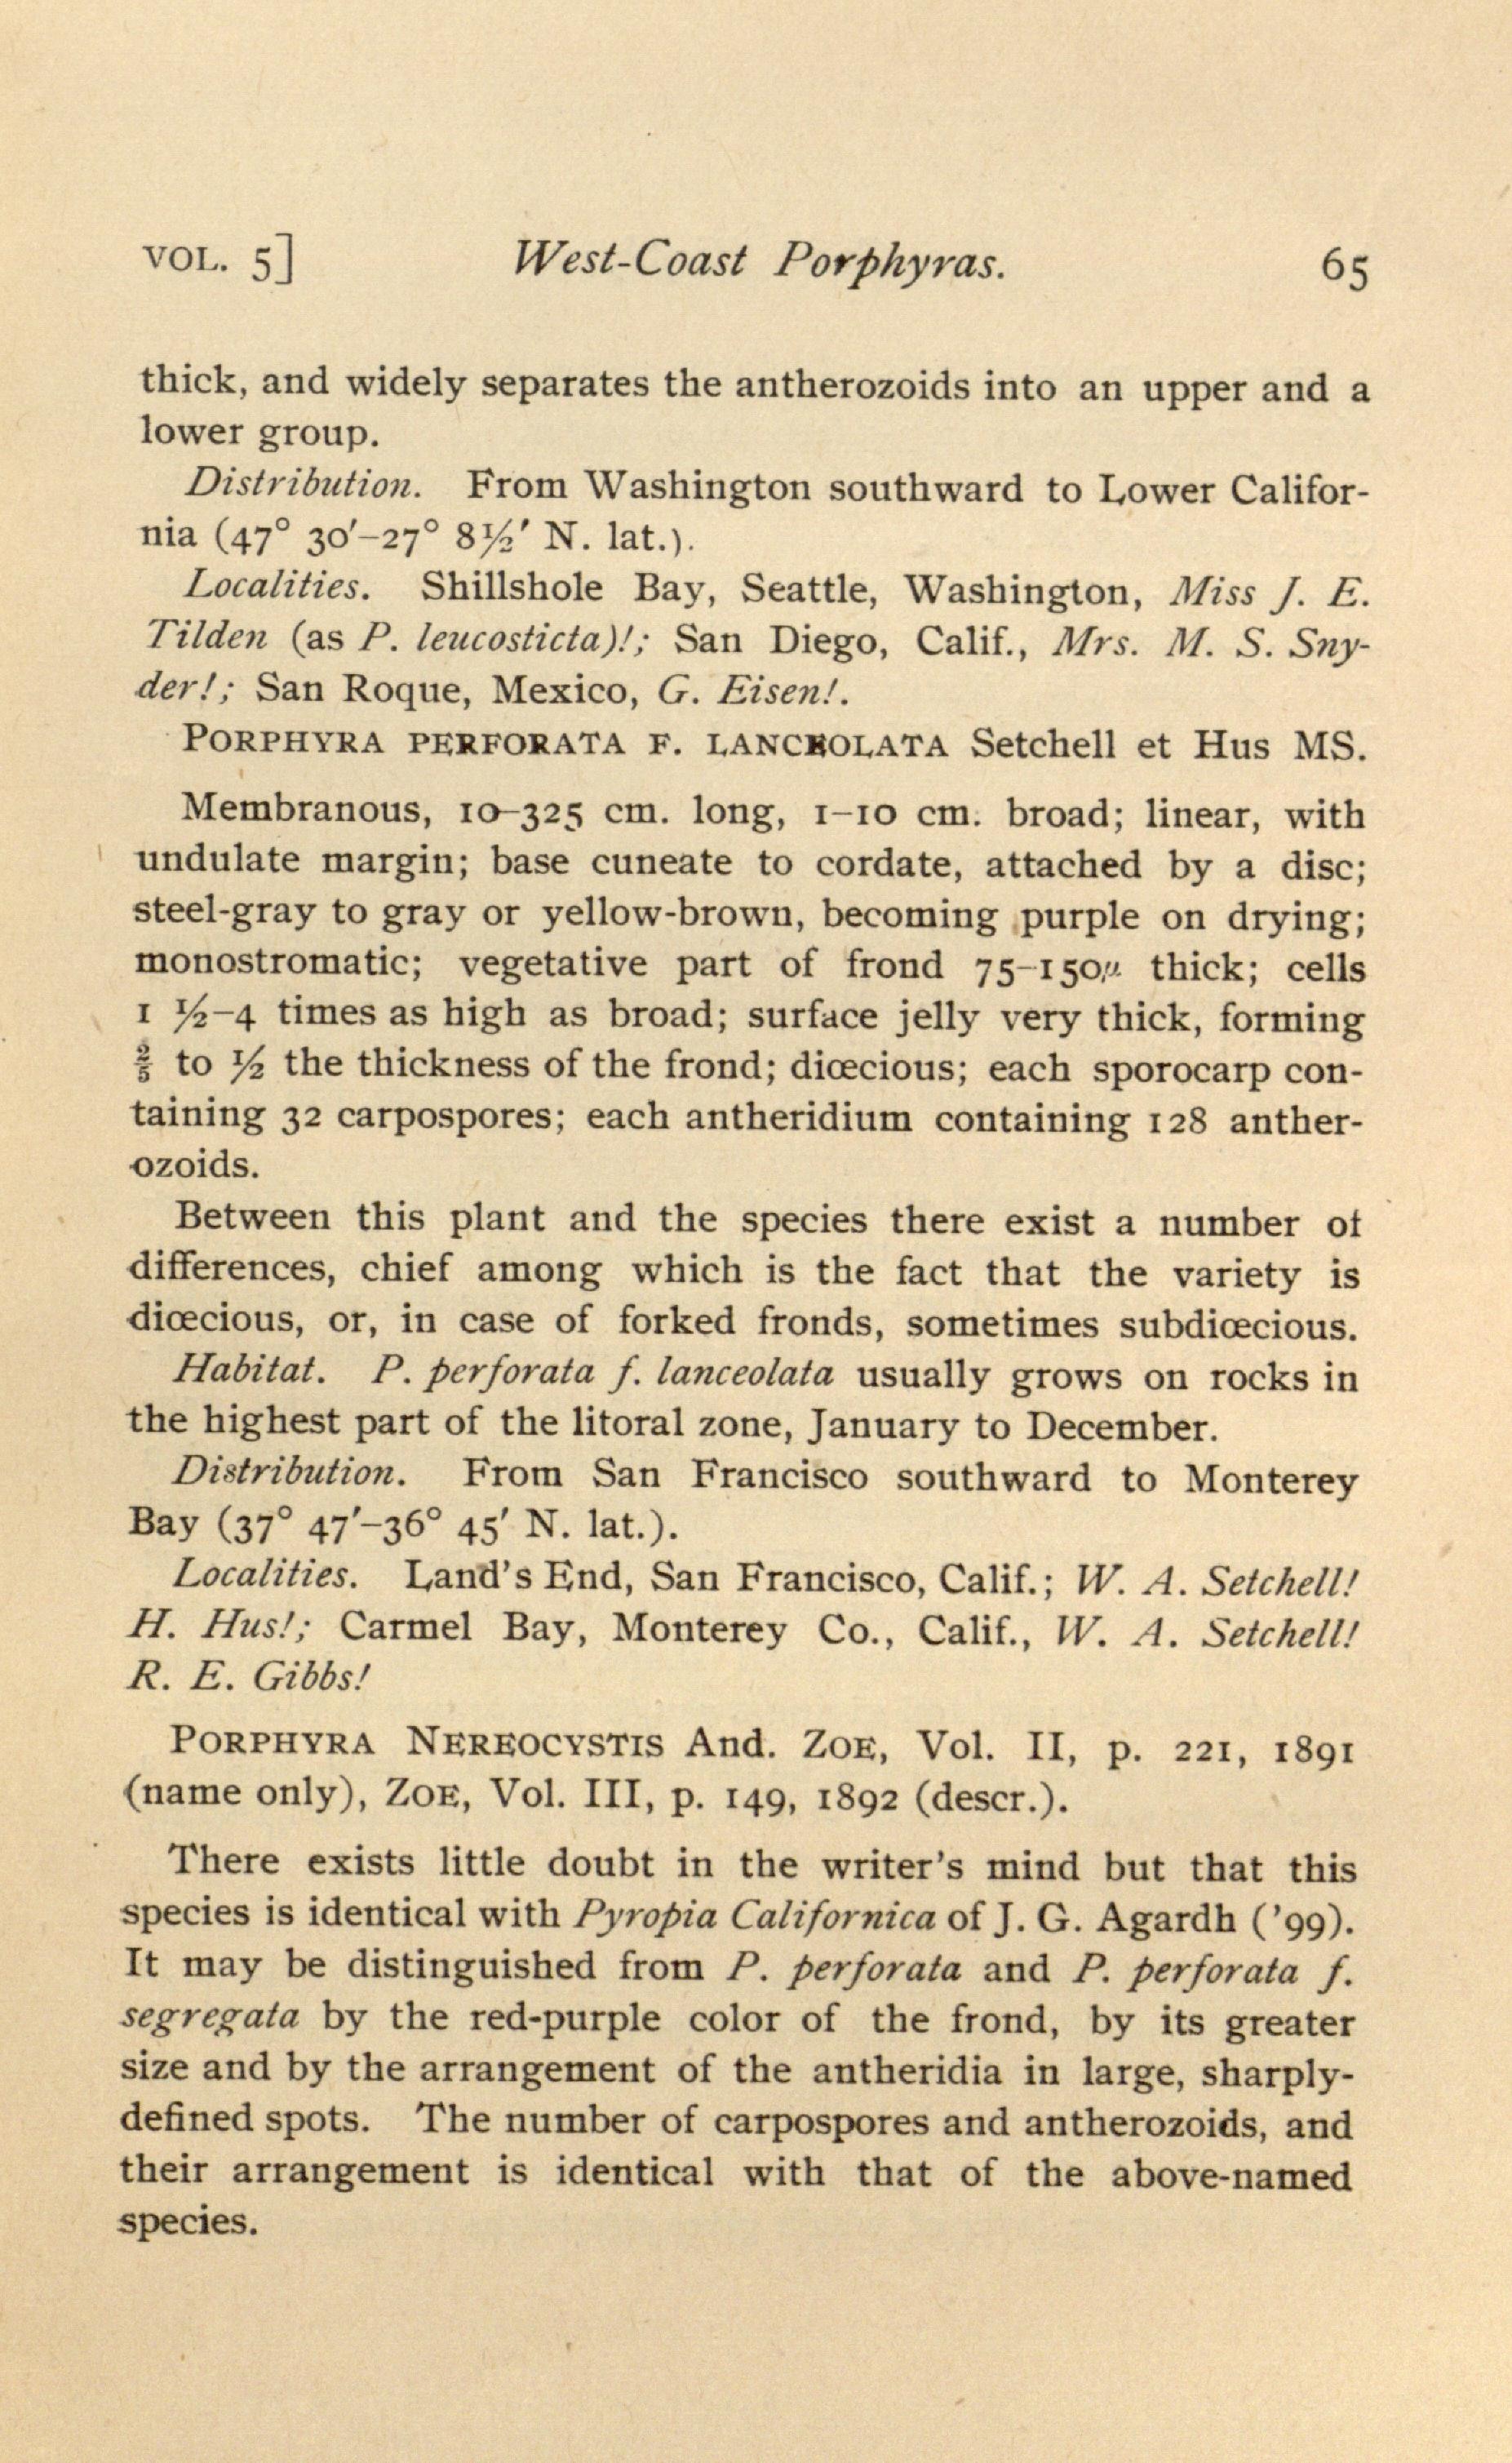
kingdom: Plantae
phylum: Rhodophyta
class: Bangiophyceae
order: Bangiales
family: Bangiaceae
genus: Neoporphyra
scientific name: Neoporphyra perforata
